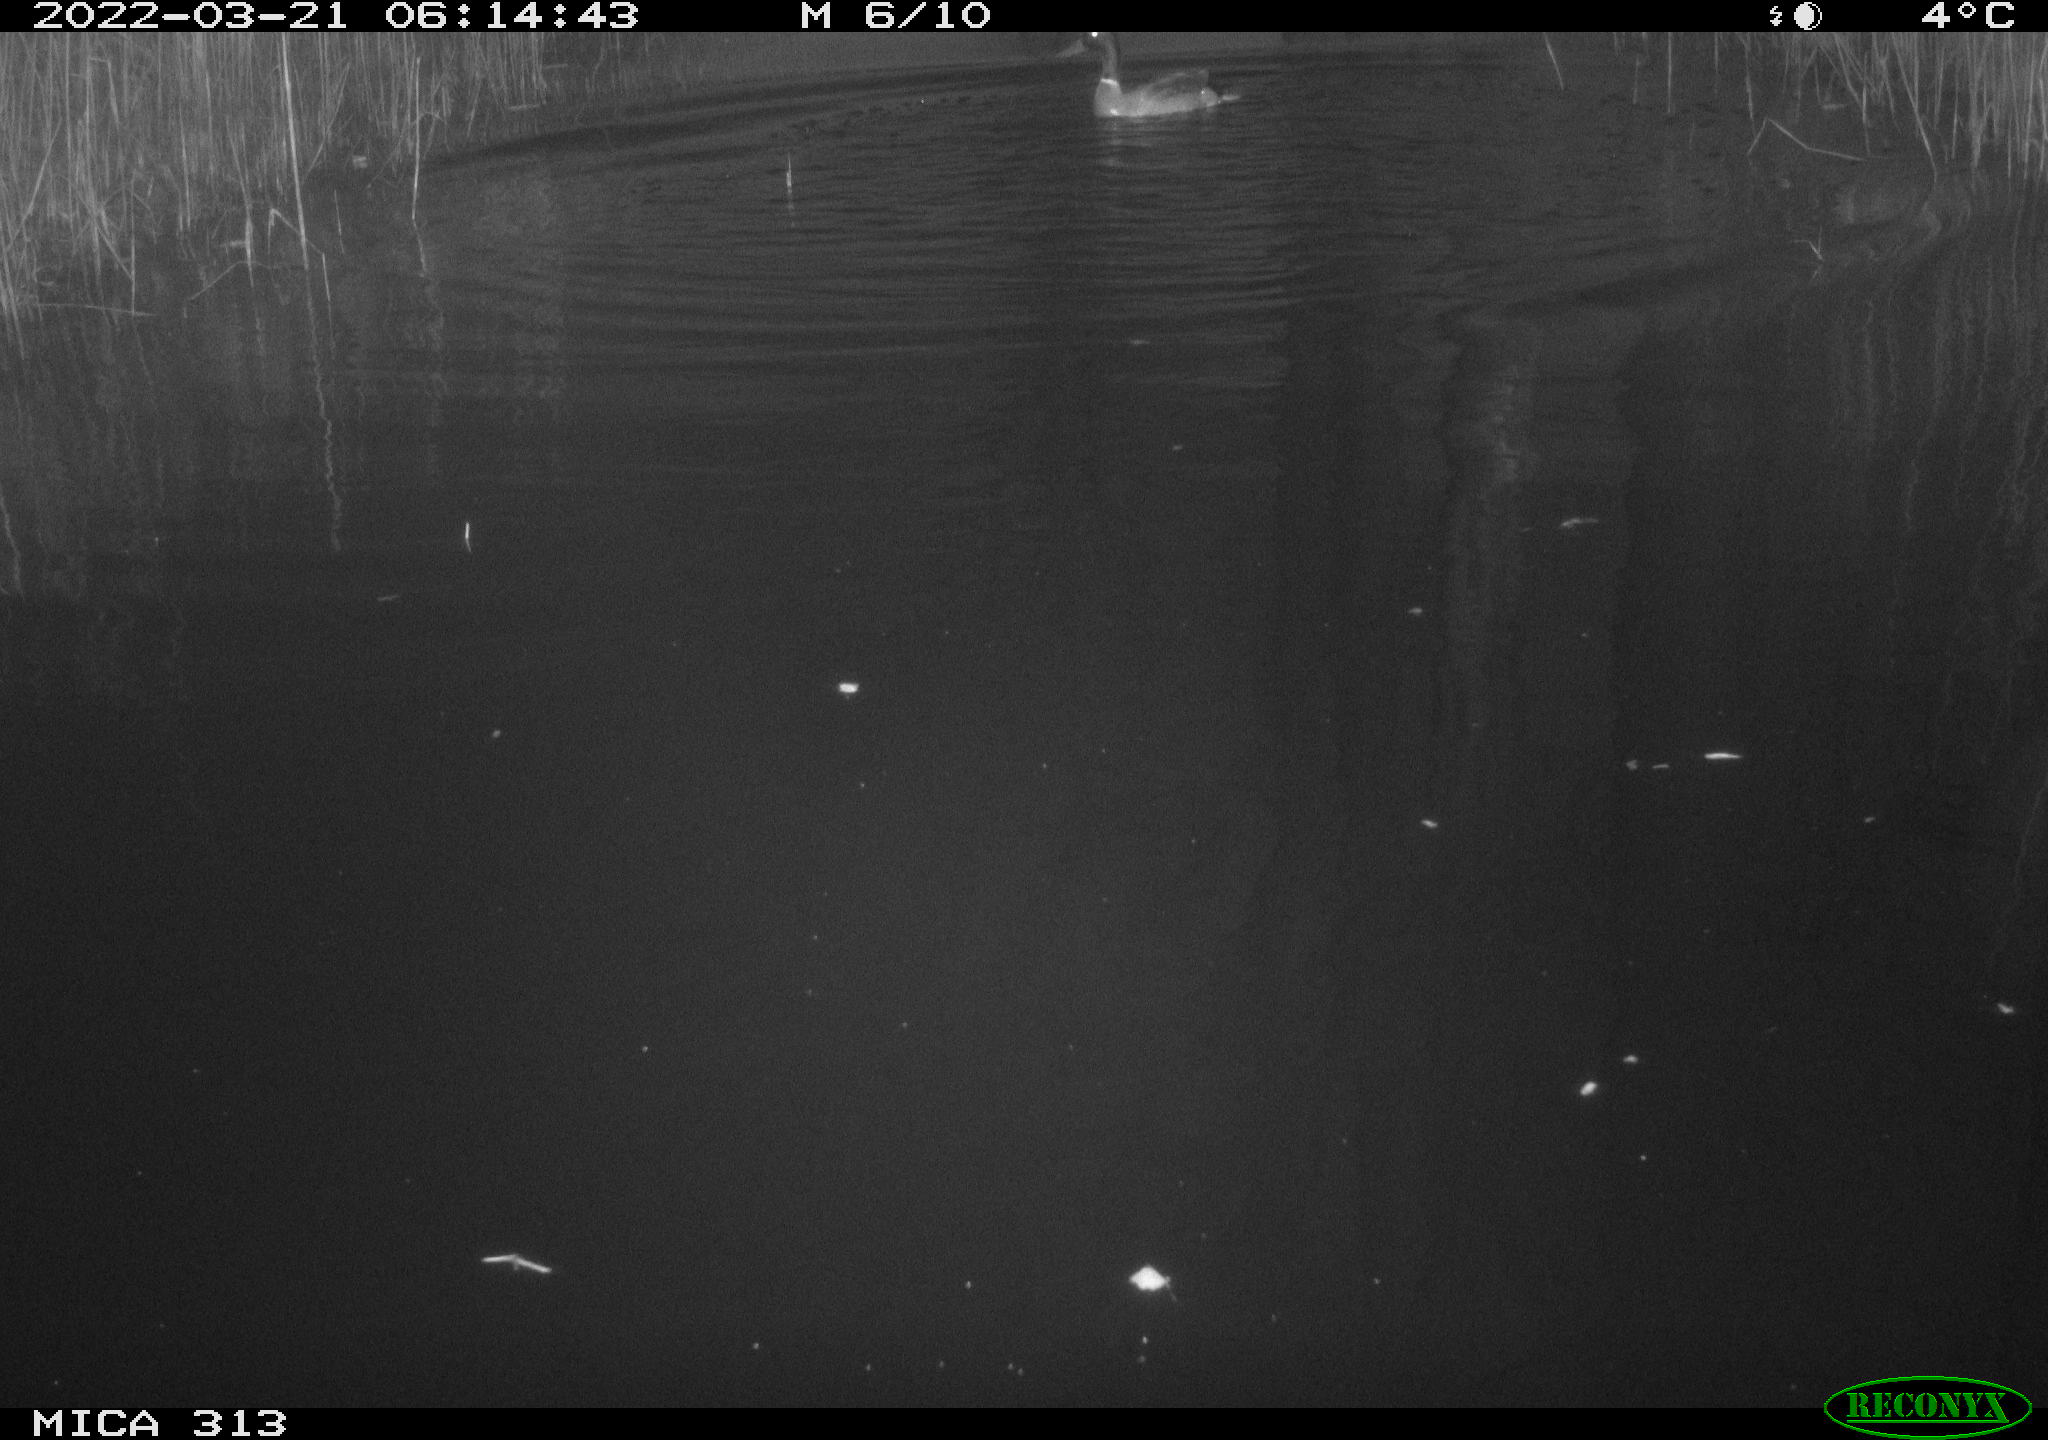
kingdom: Animalia
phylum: Chordata
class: Aves
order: Anseriformes
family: Anatidae
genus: Anas
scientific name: Anas platyrhynchos
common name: Mallard
